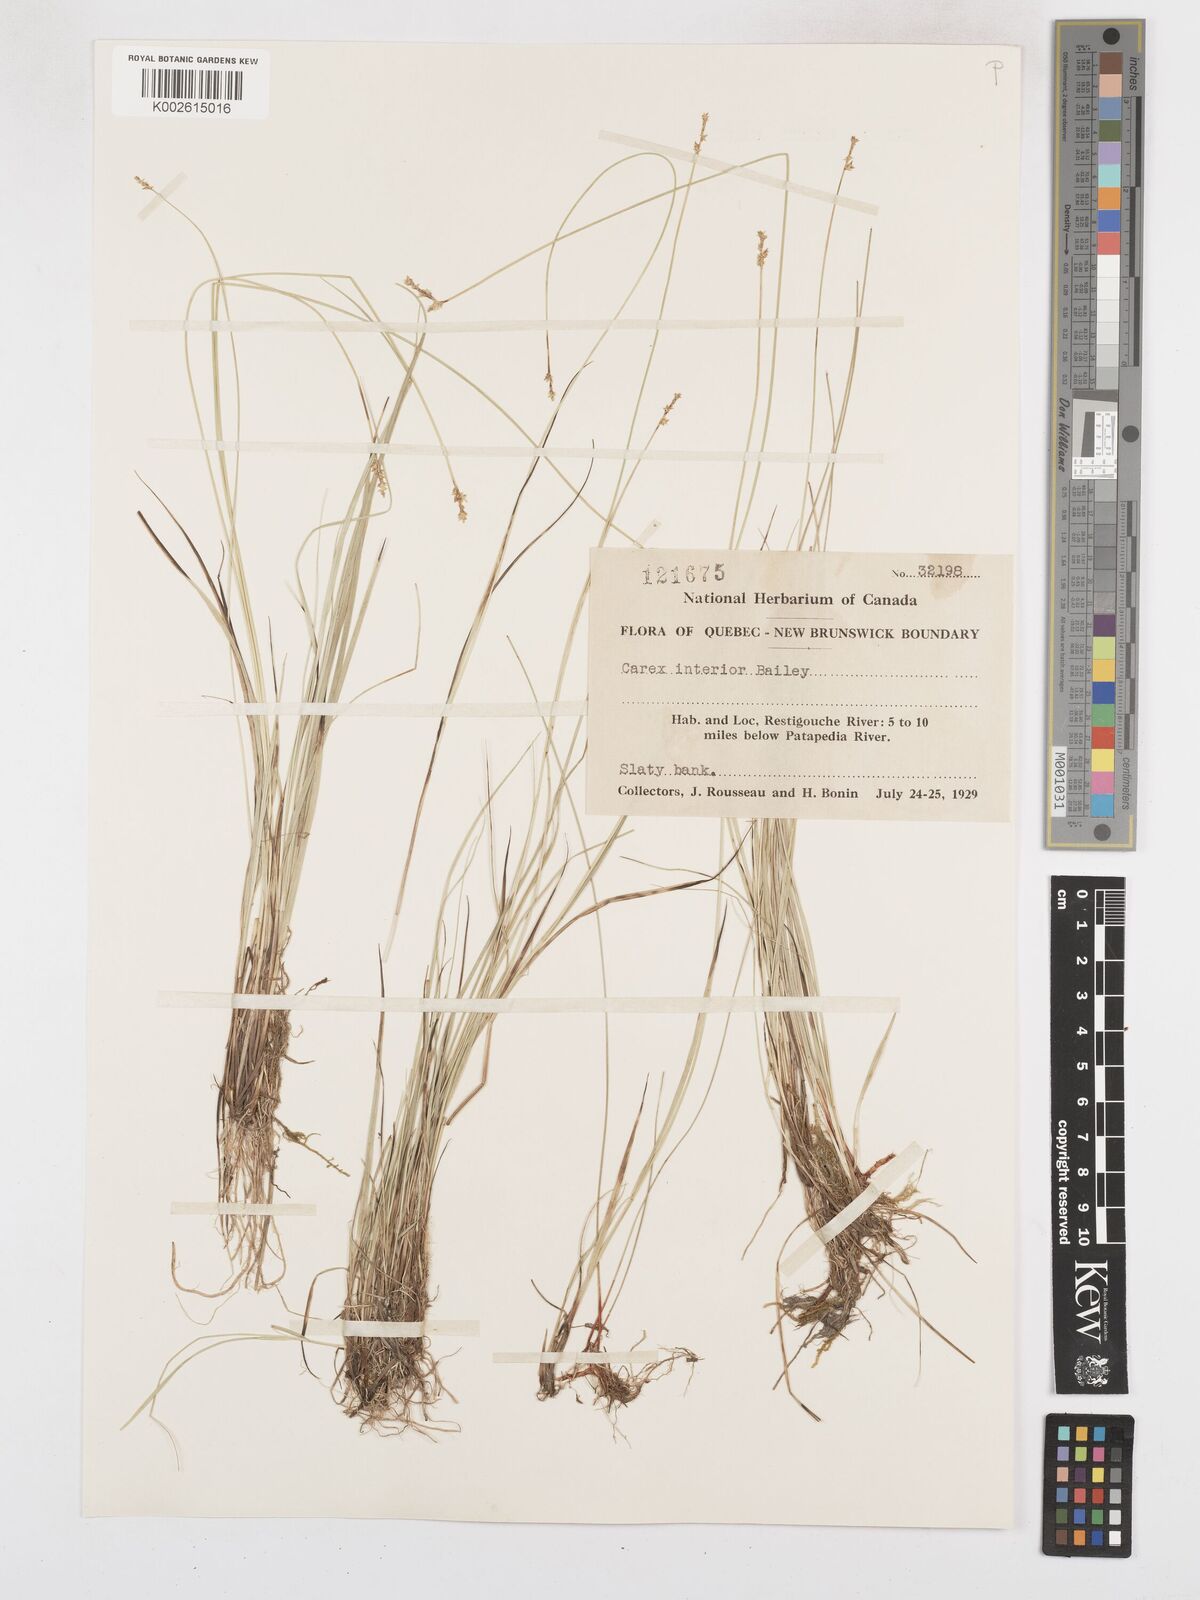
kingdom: Plantae
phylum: Tracheophyta
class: Liliopsida
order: Poales
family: Cyperaceae
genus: Carex
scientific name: Carex interior
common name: Inland sedge
